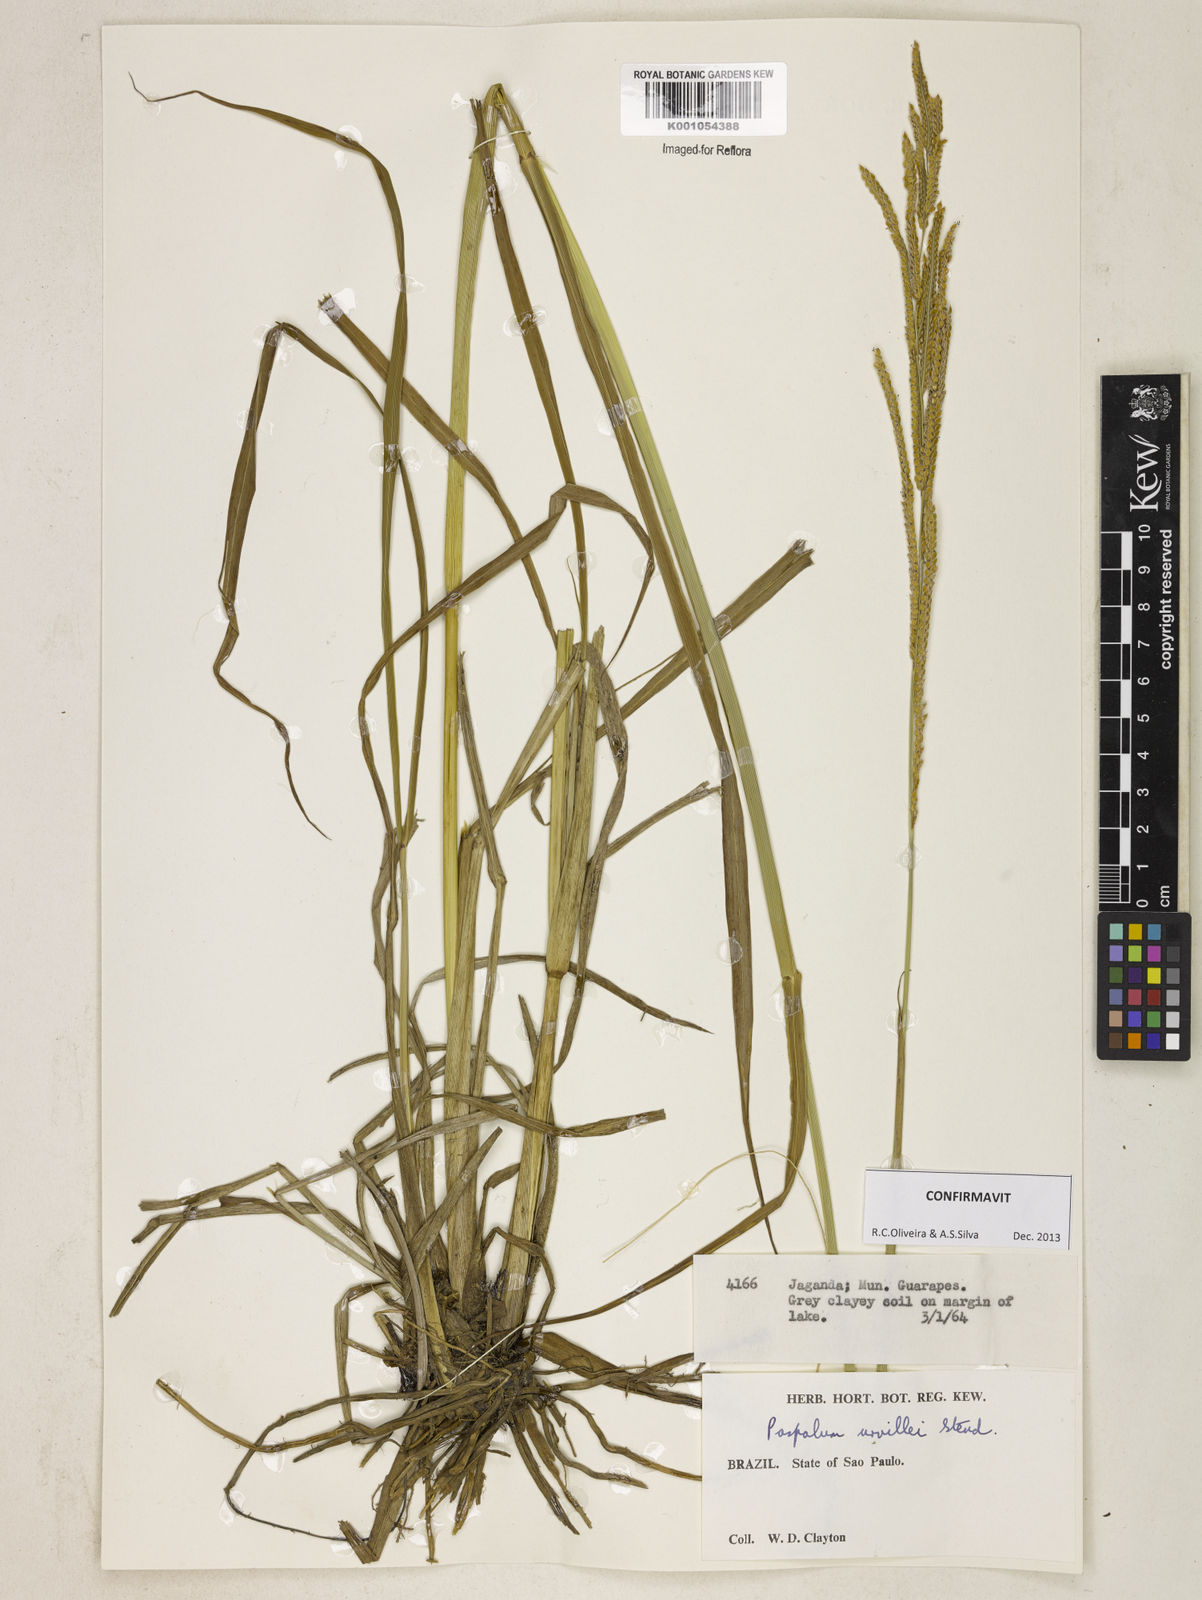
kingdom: Plantae
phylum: Tracheophyta
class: Liliopsida
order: Poales
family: Poaceae
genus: Paspalum
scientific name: Paspalum urvillei
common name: Vasey's grass
